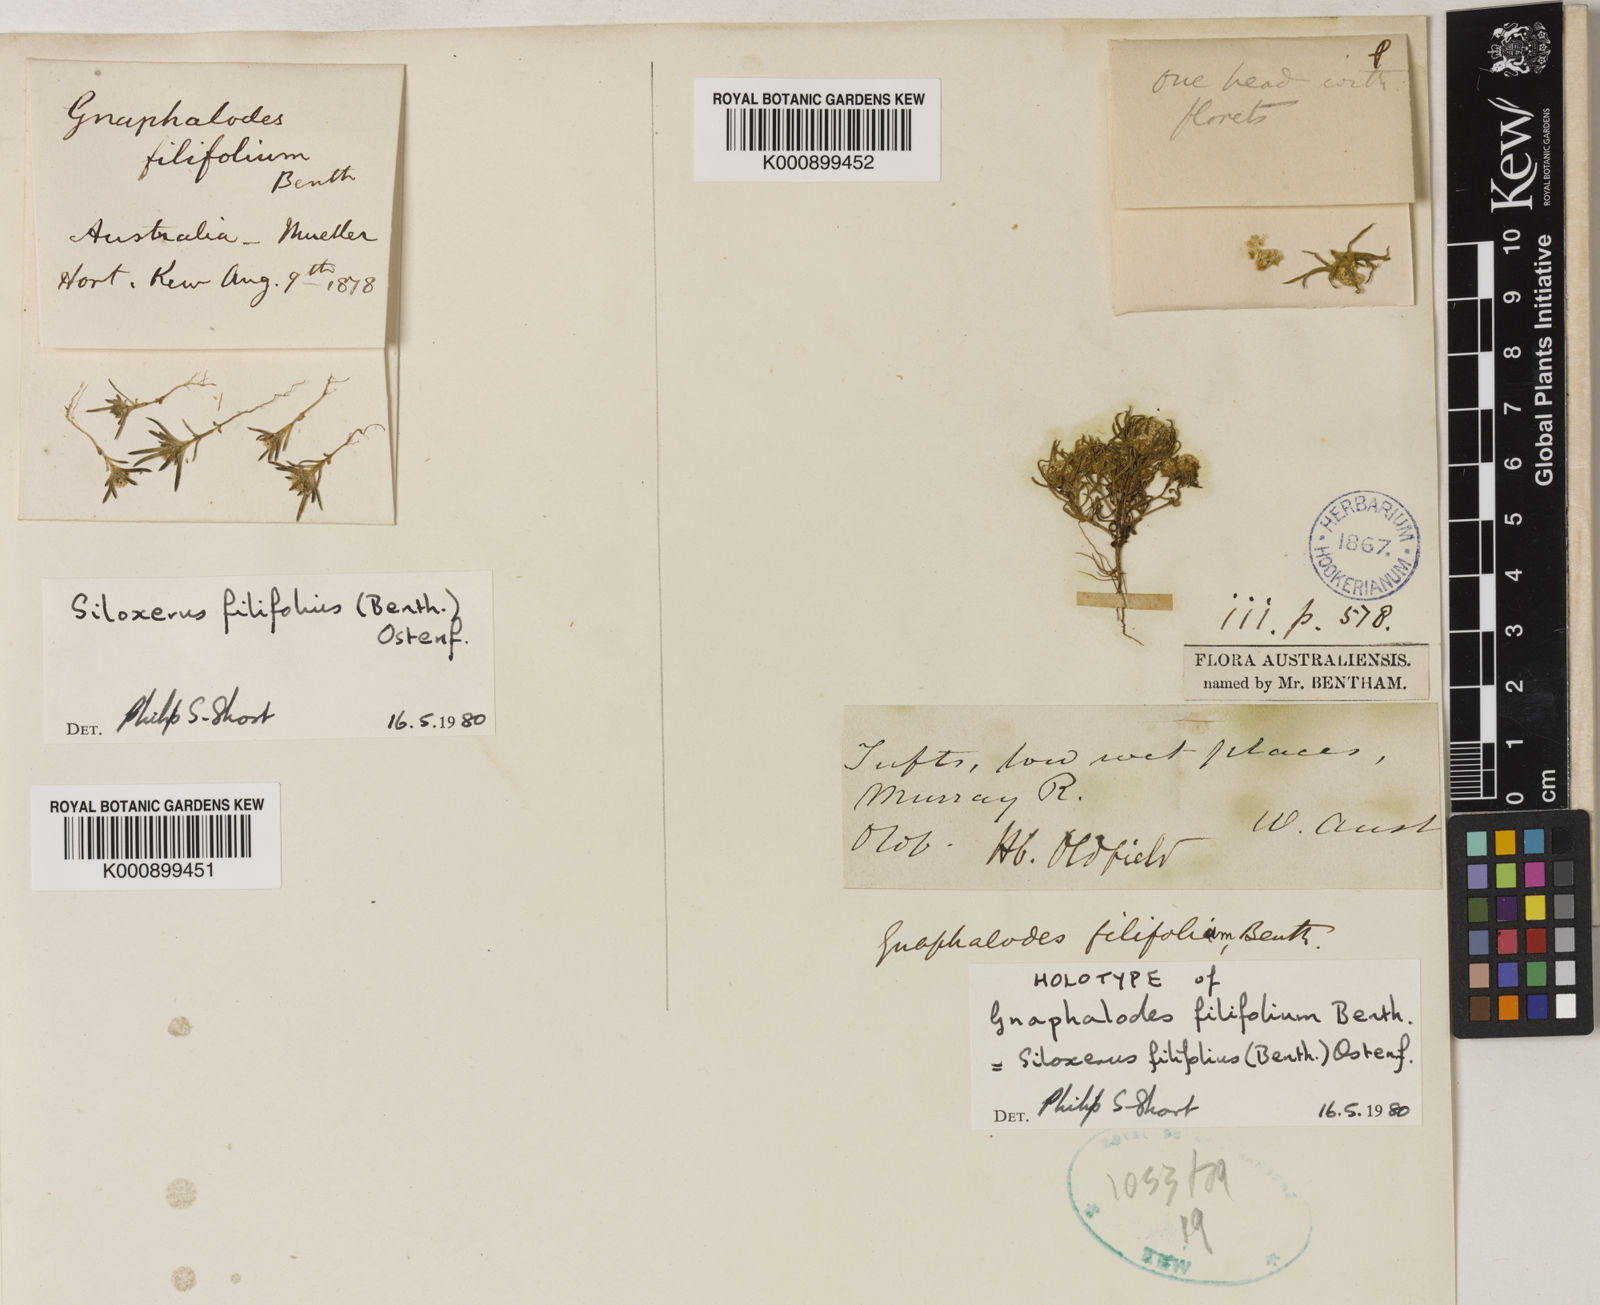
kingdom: Plantae
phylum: Tracheophyta
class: Magnoliopsida
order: Asterales
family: Asteraceae
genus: Siloxerus
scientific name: Siloxerus filifolius
